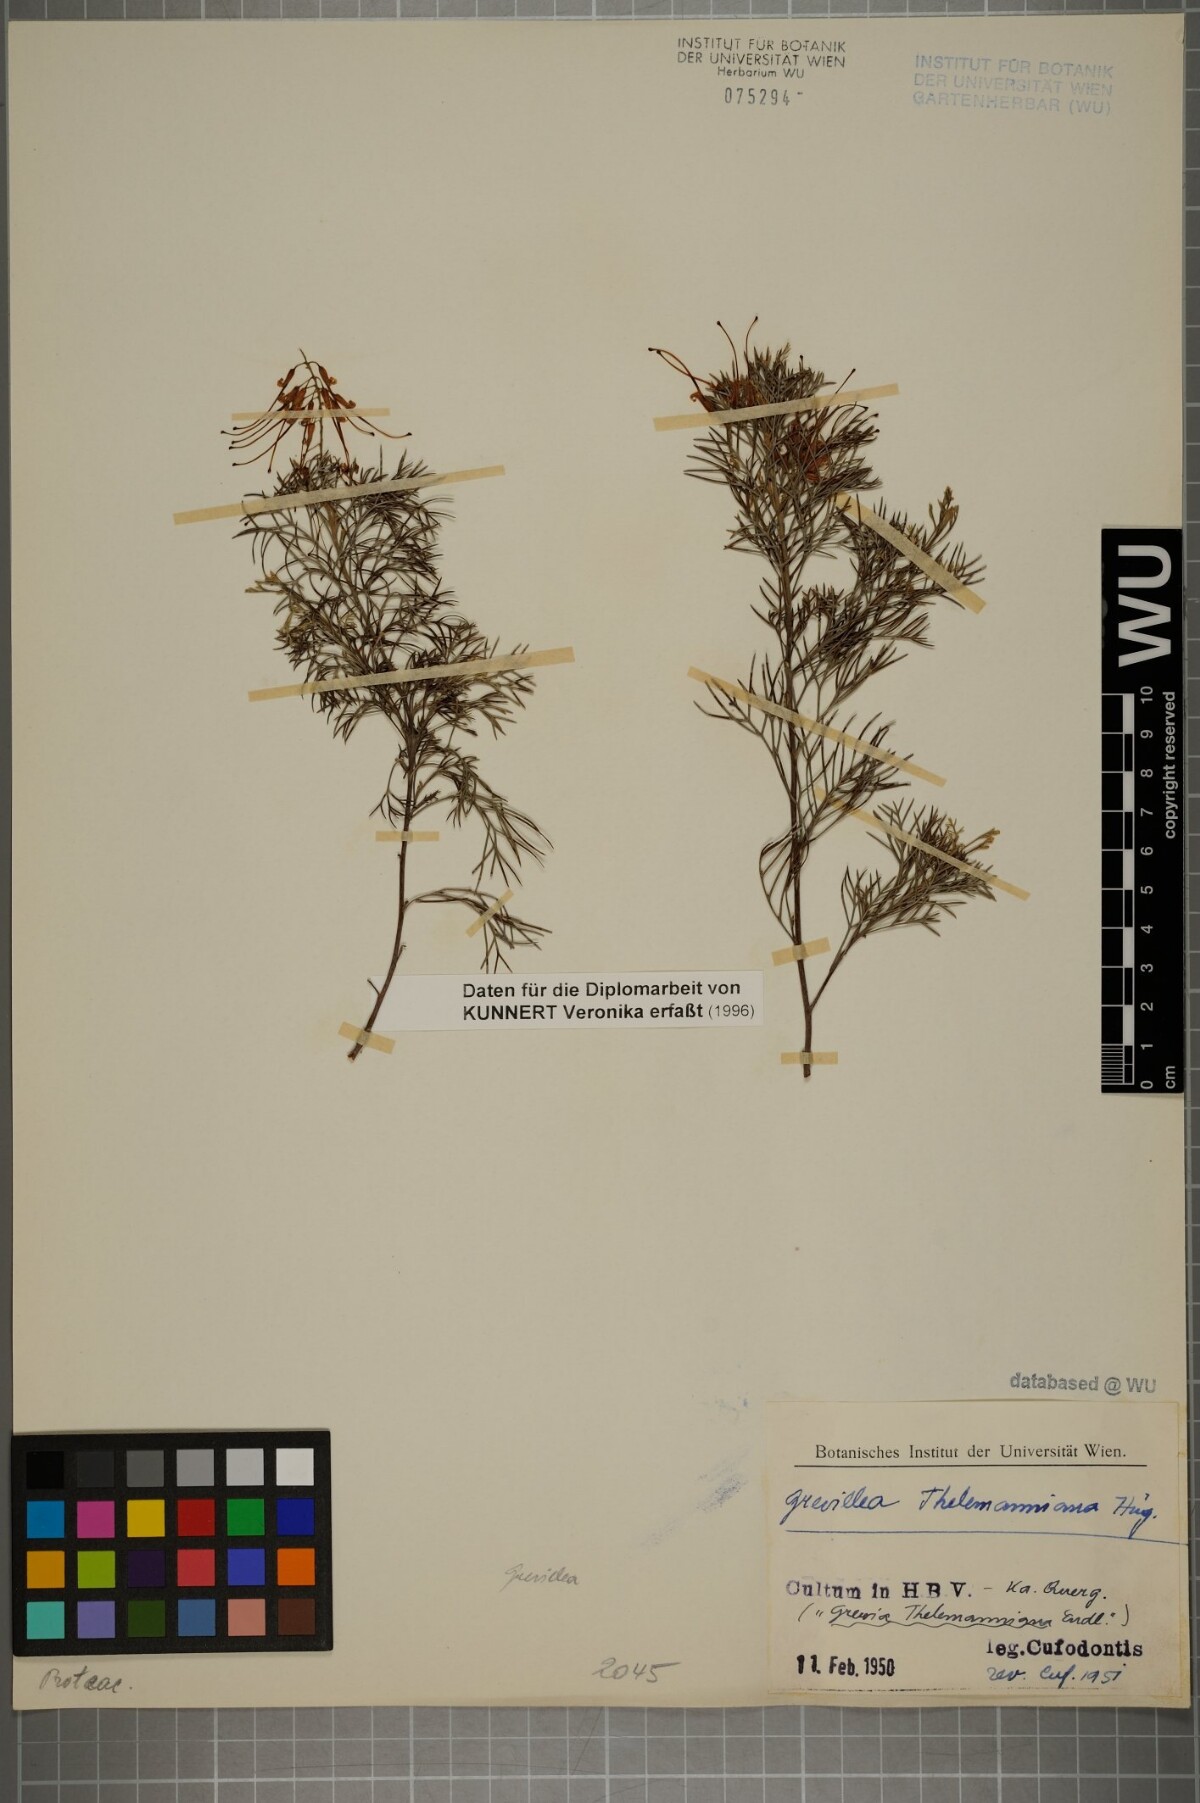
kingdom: Plantae
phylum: Tracheophyta
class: Magnoliopsida
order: Proteales
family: Proteaceae
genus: Grevillea
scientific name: Grevillea thelemanniana
